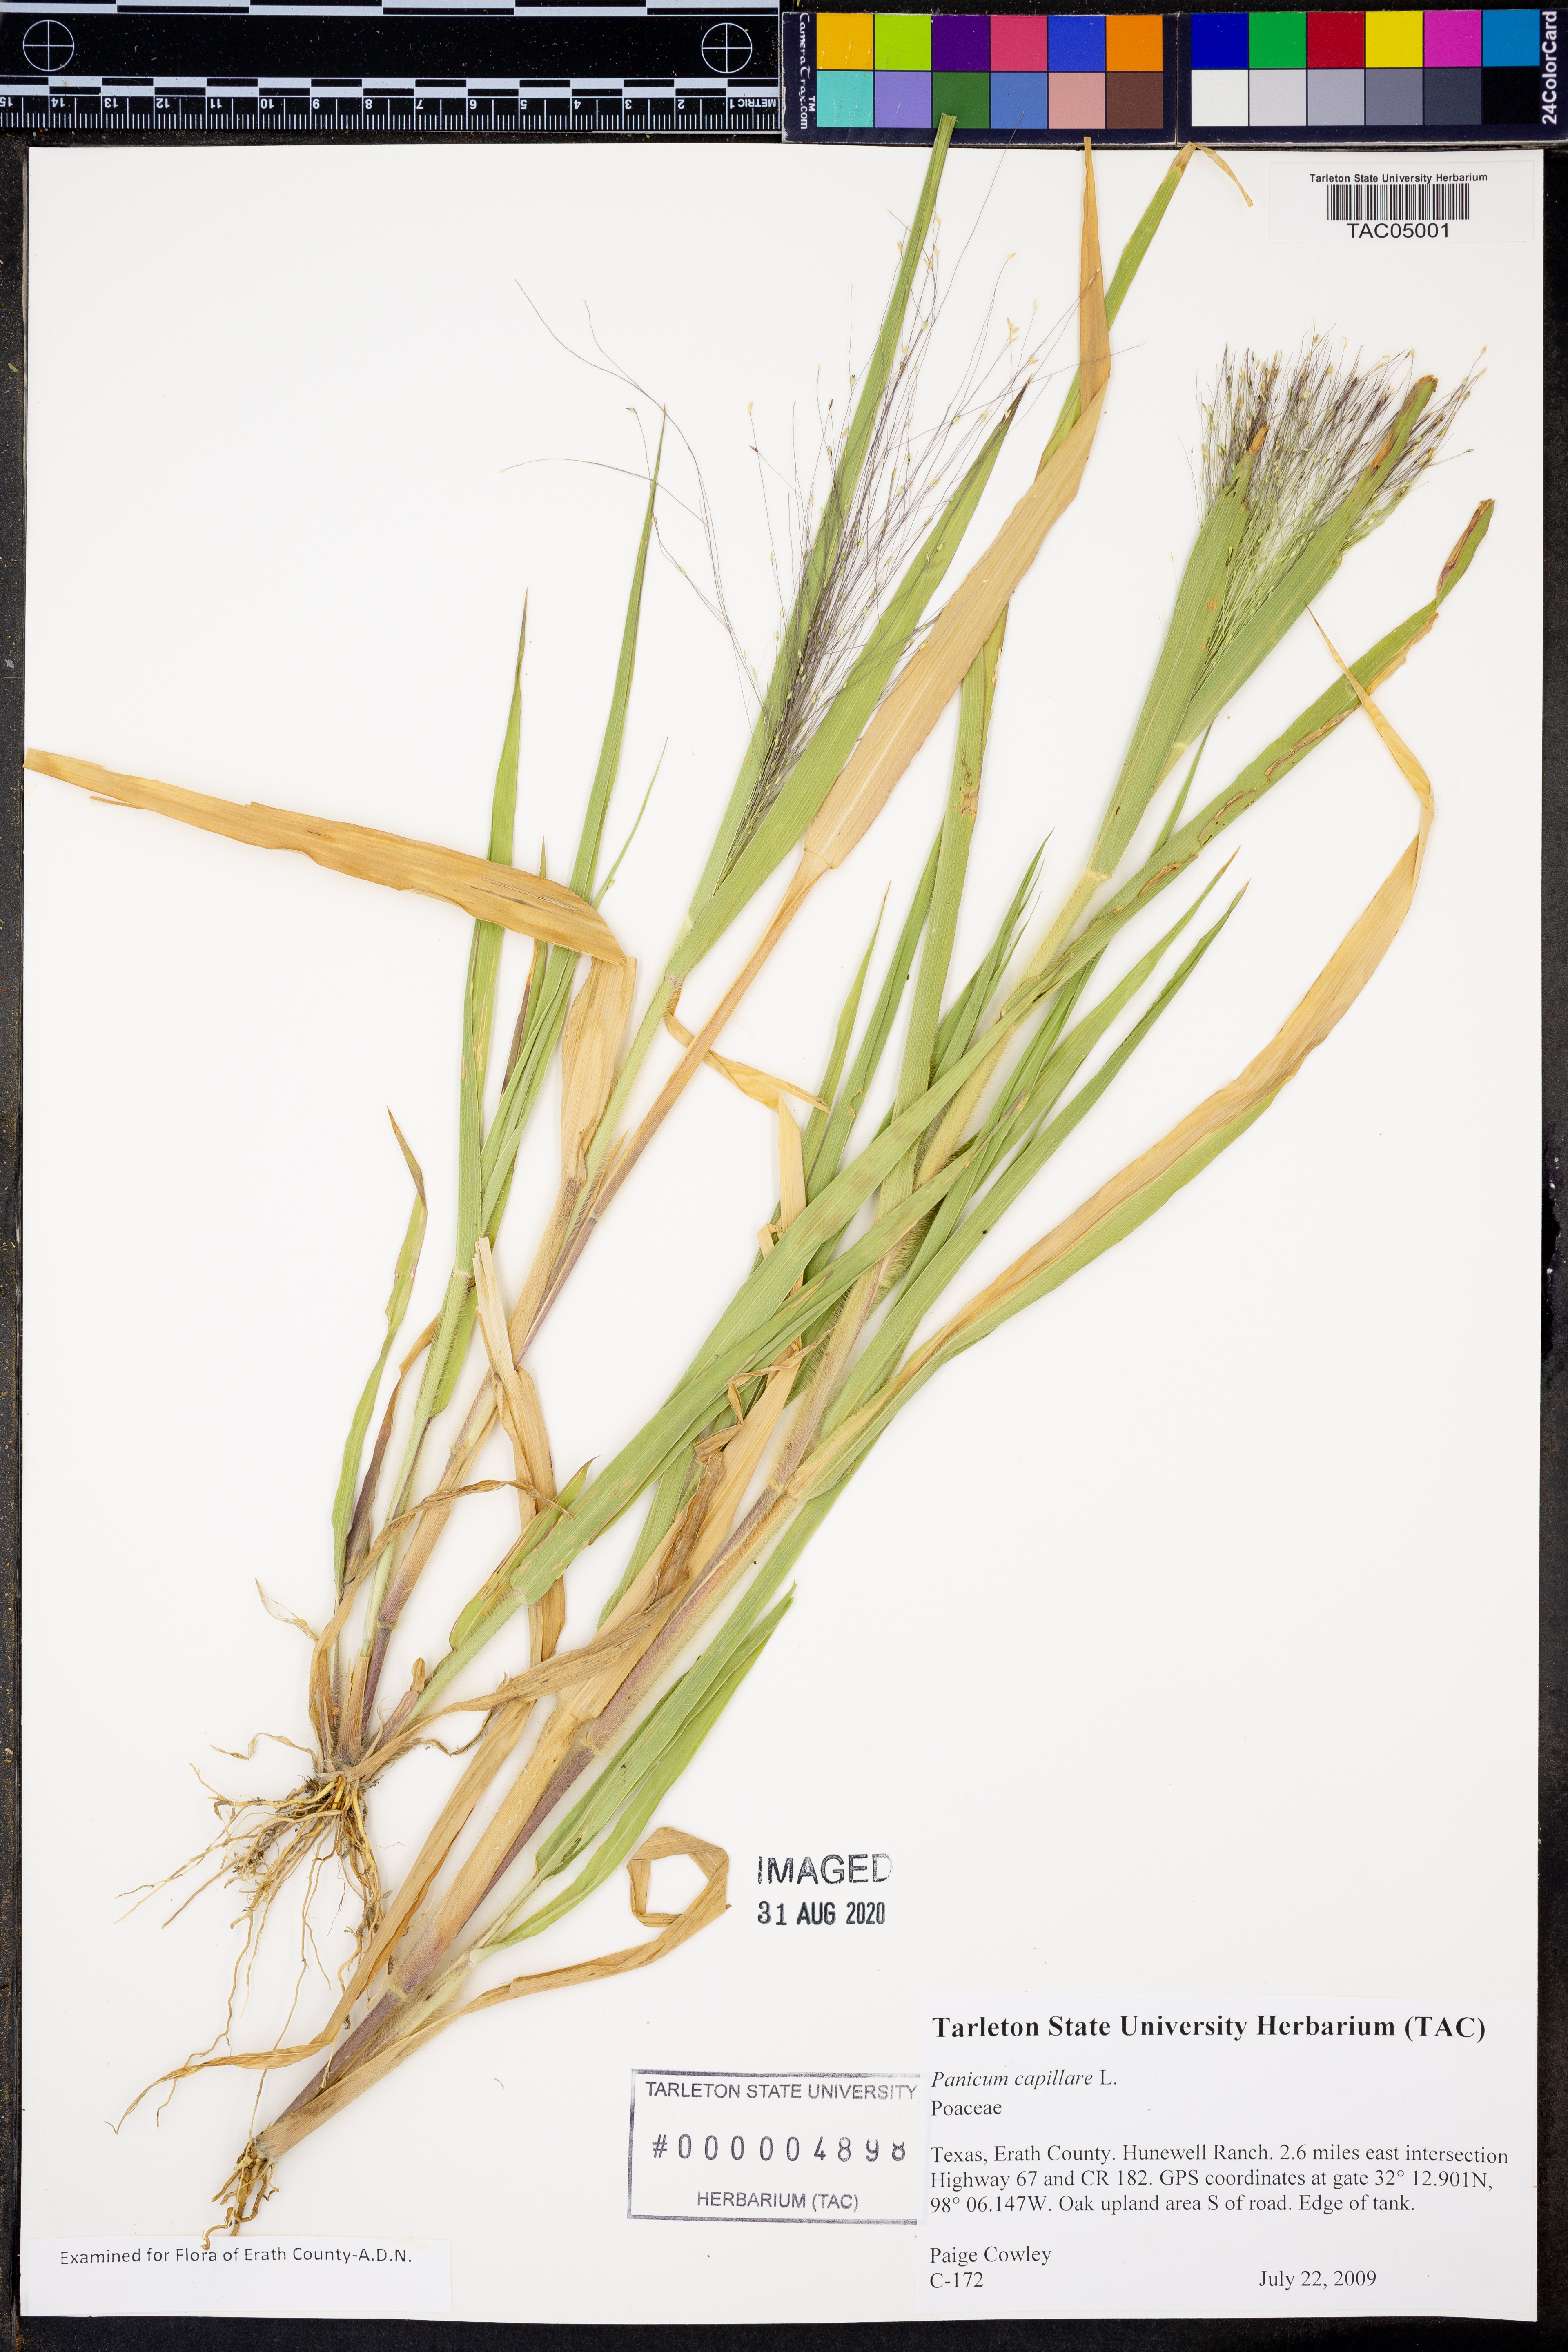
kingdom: Plantae
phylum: Tracheophyta
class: Liliopsida
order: Poales
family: Poaceae
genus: Panicum
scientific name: Panicum capillare
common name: Witch-grass
